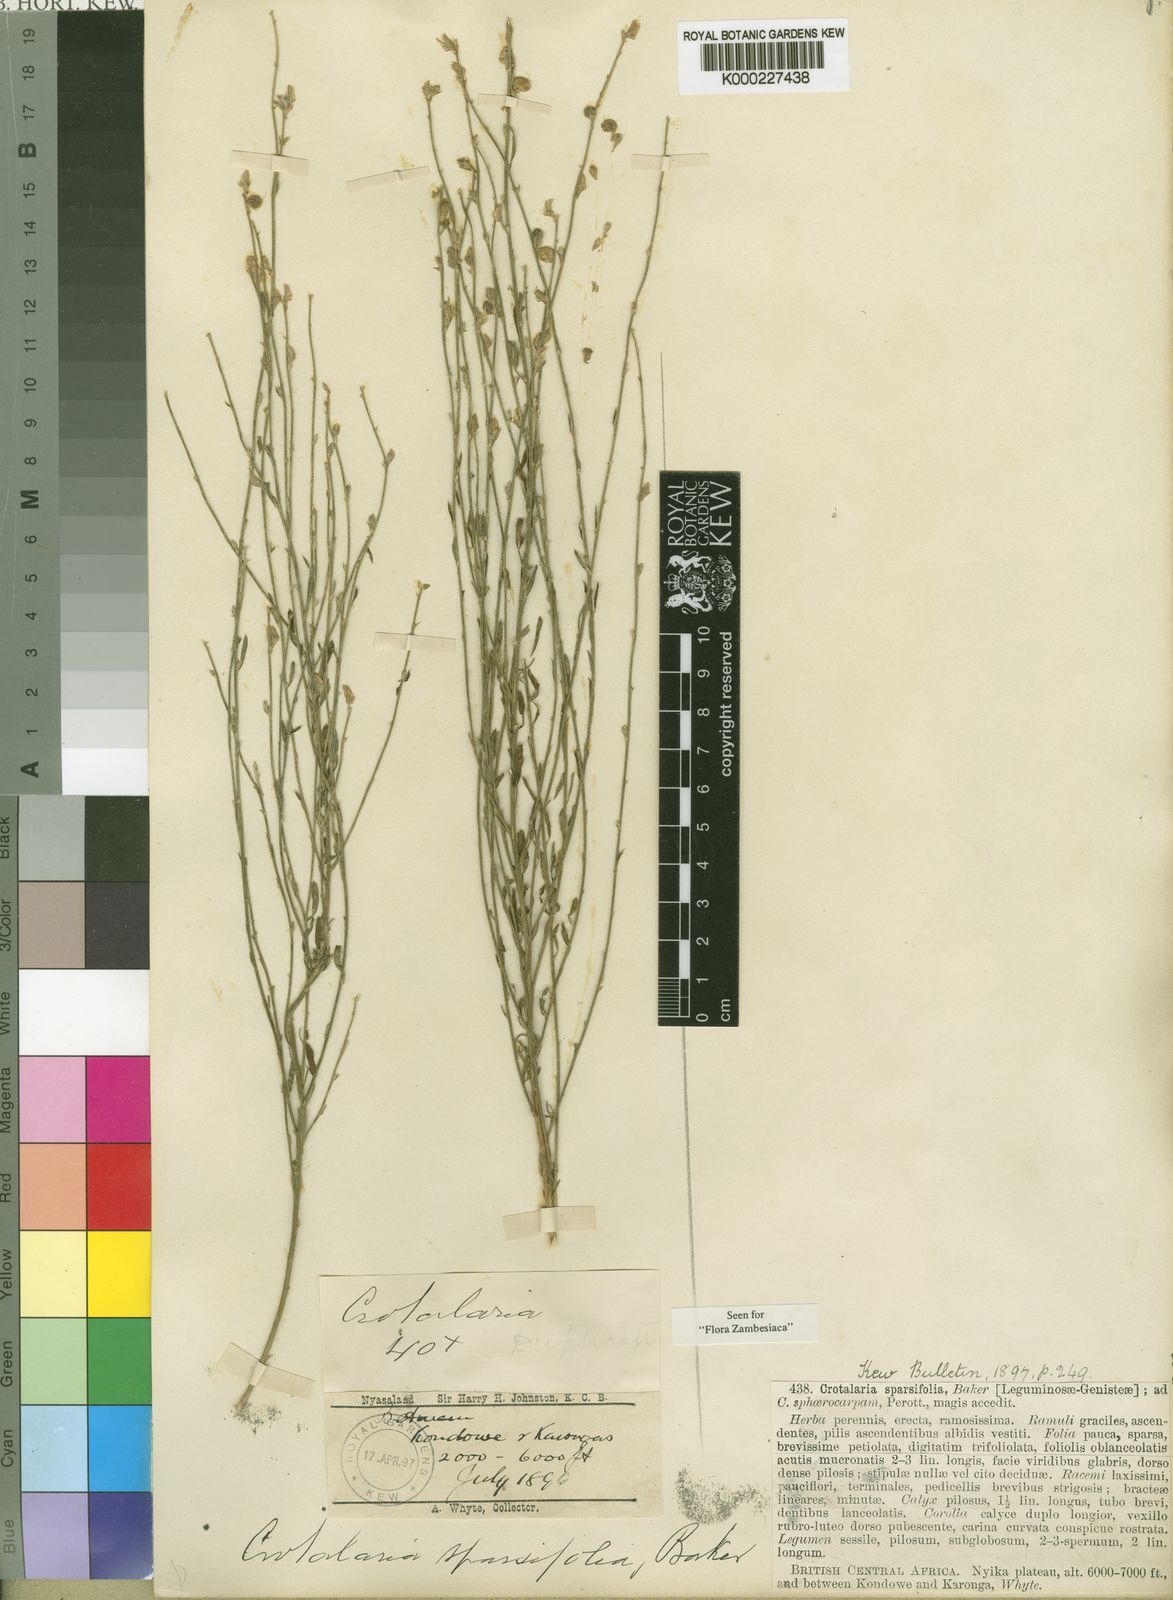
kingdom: Plantae
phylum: Tracheophyta
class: Magnoliopsida
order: Fabales
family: Fabaceae
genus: Crotalaria
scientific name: Crotalaria sparsifolia
